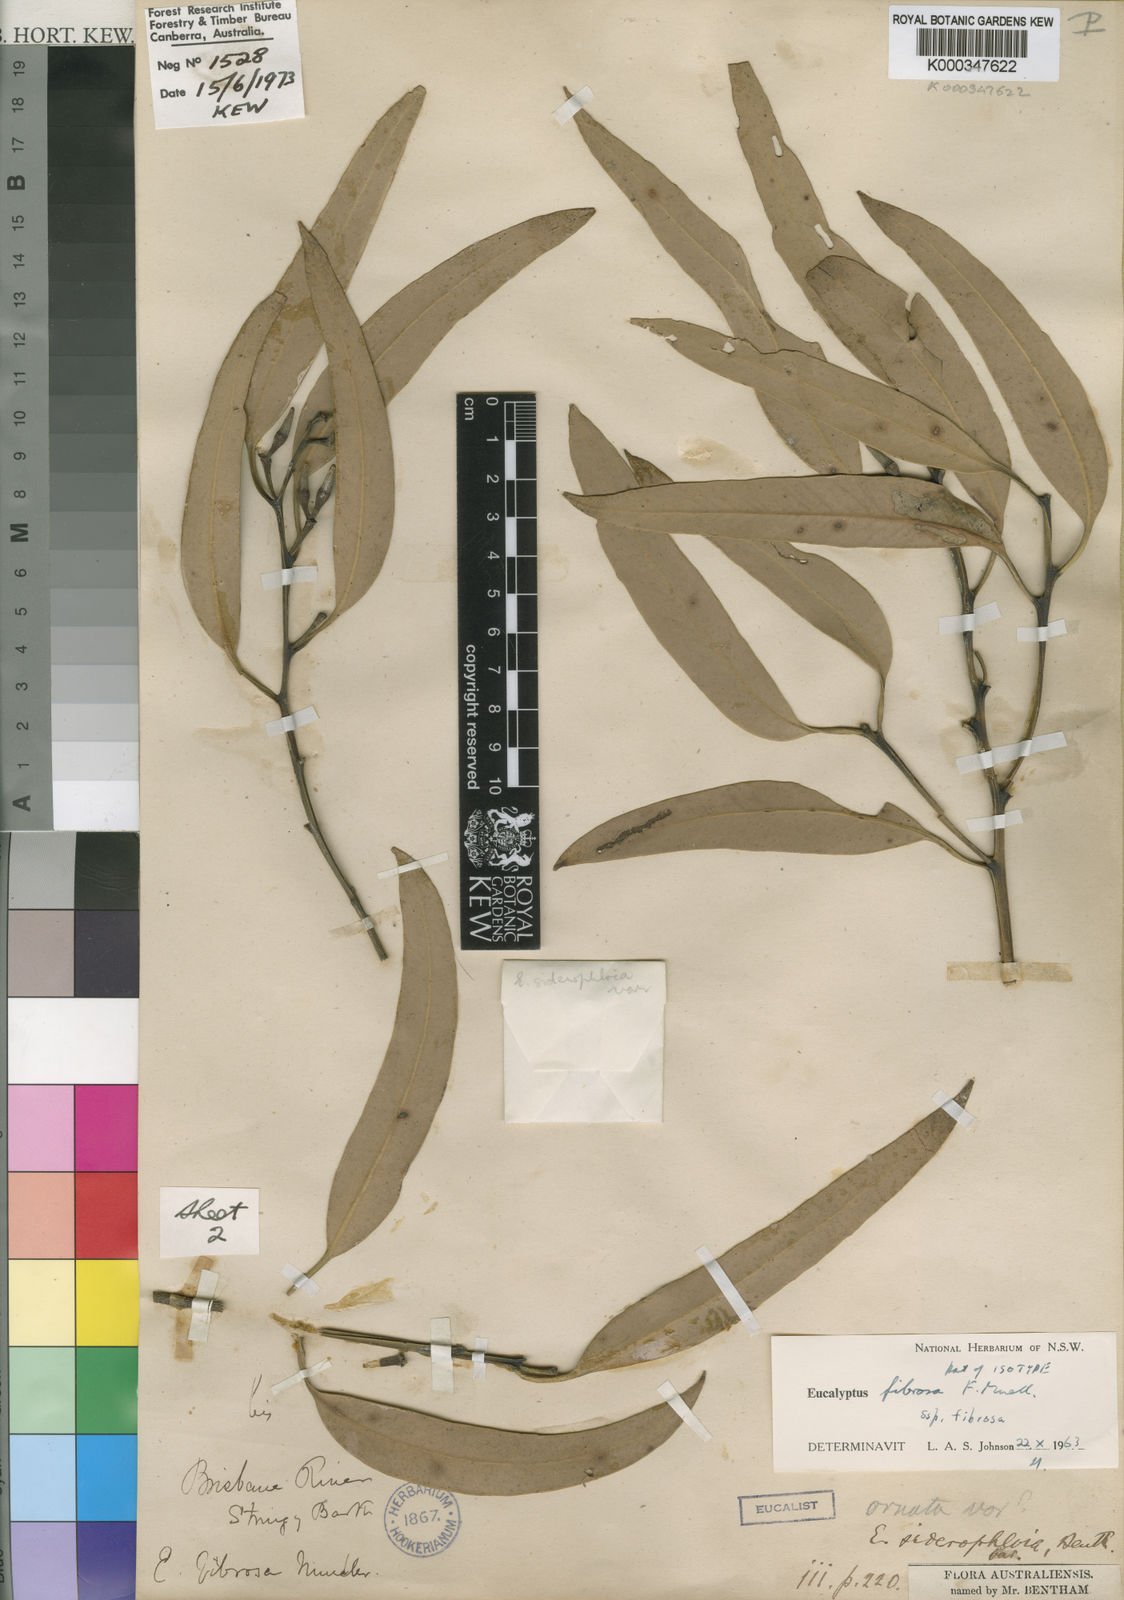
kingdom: Plantae
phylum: Tracheophyta
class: Magnoliopsida
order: Myrtales
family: Myrtaceae
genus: Eucalyptus
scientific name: Eucalyptus fibrosa
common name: Red ironbark
